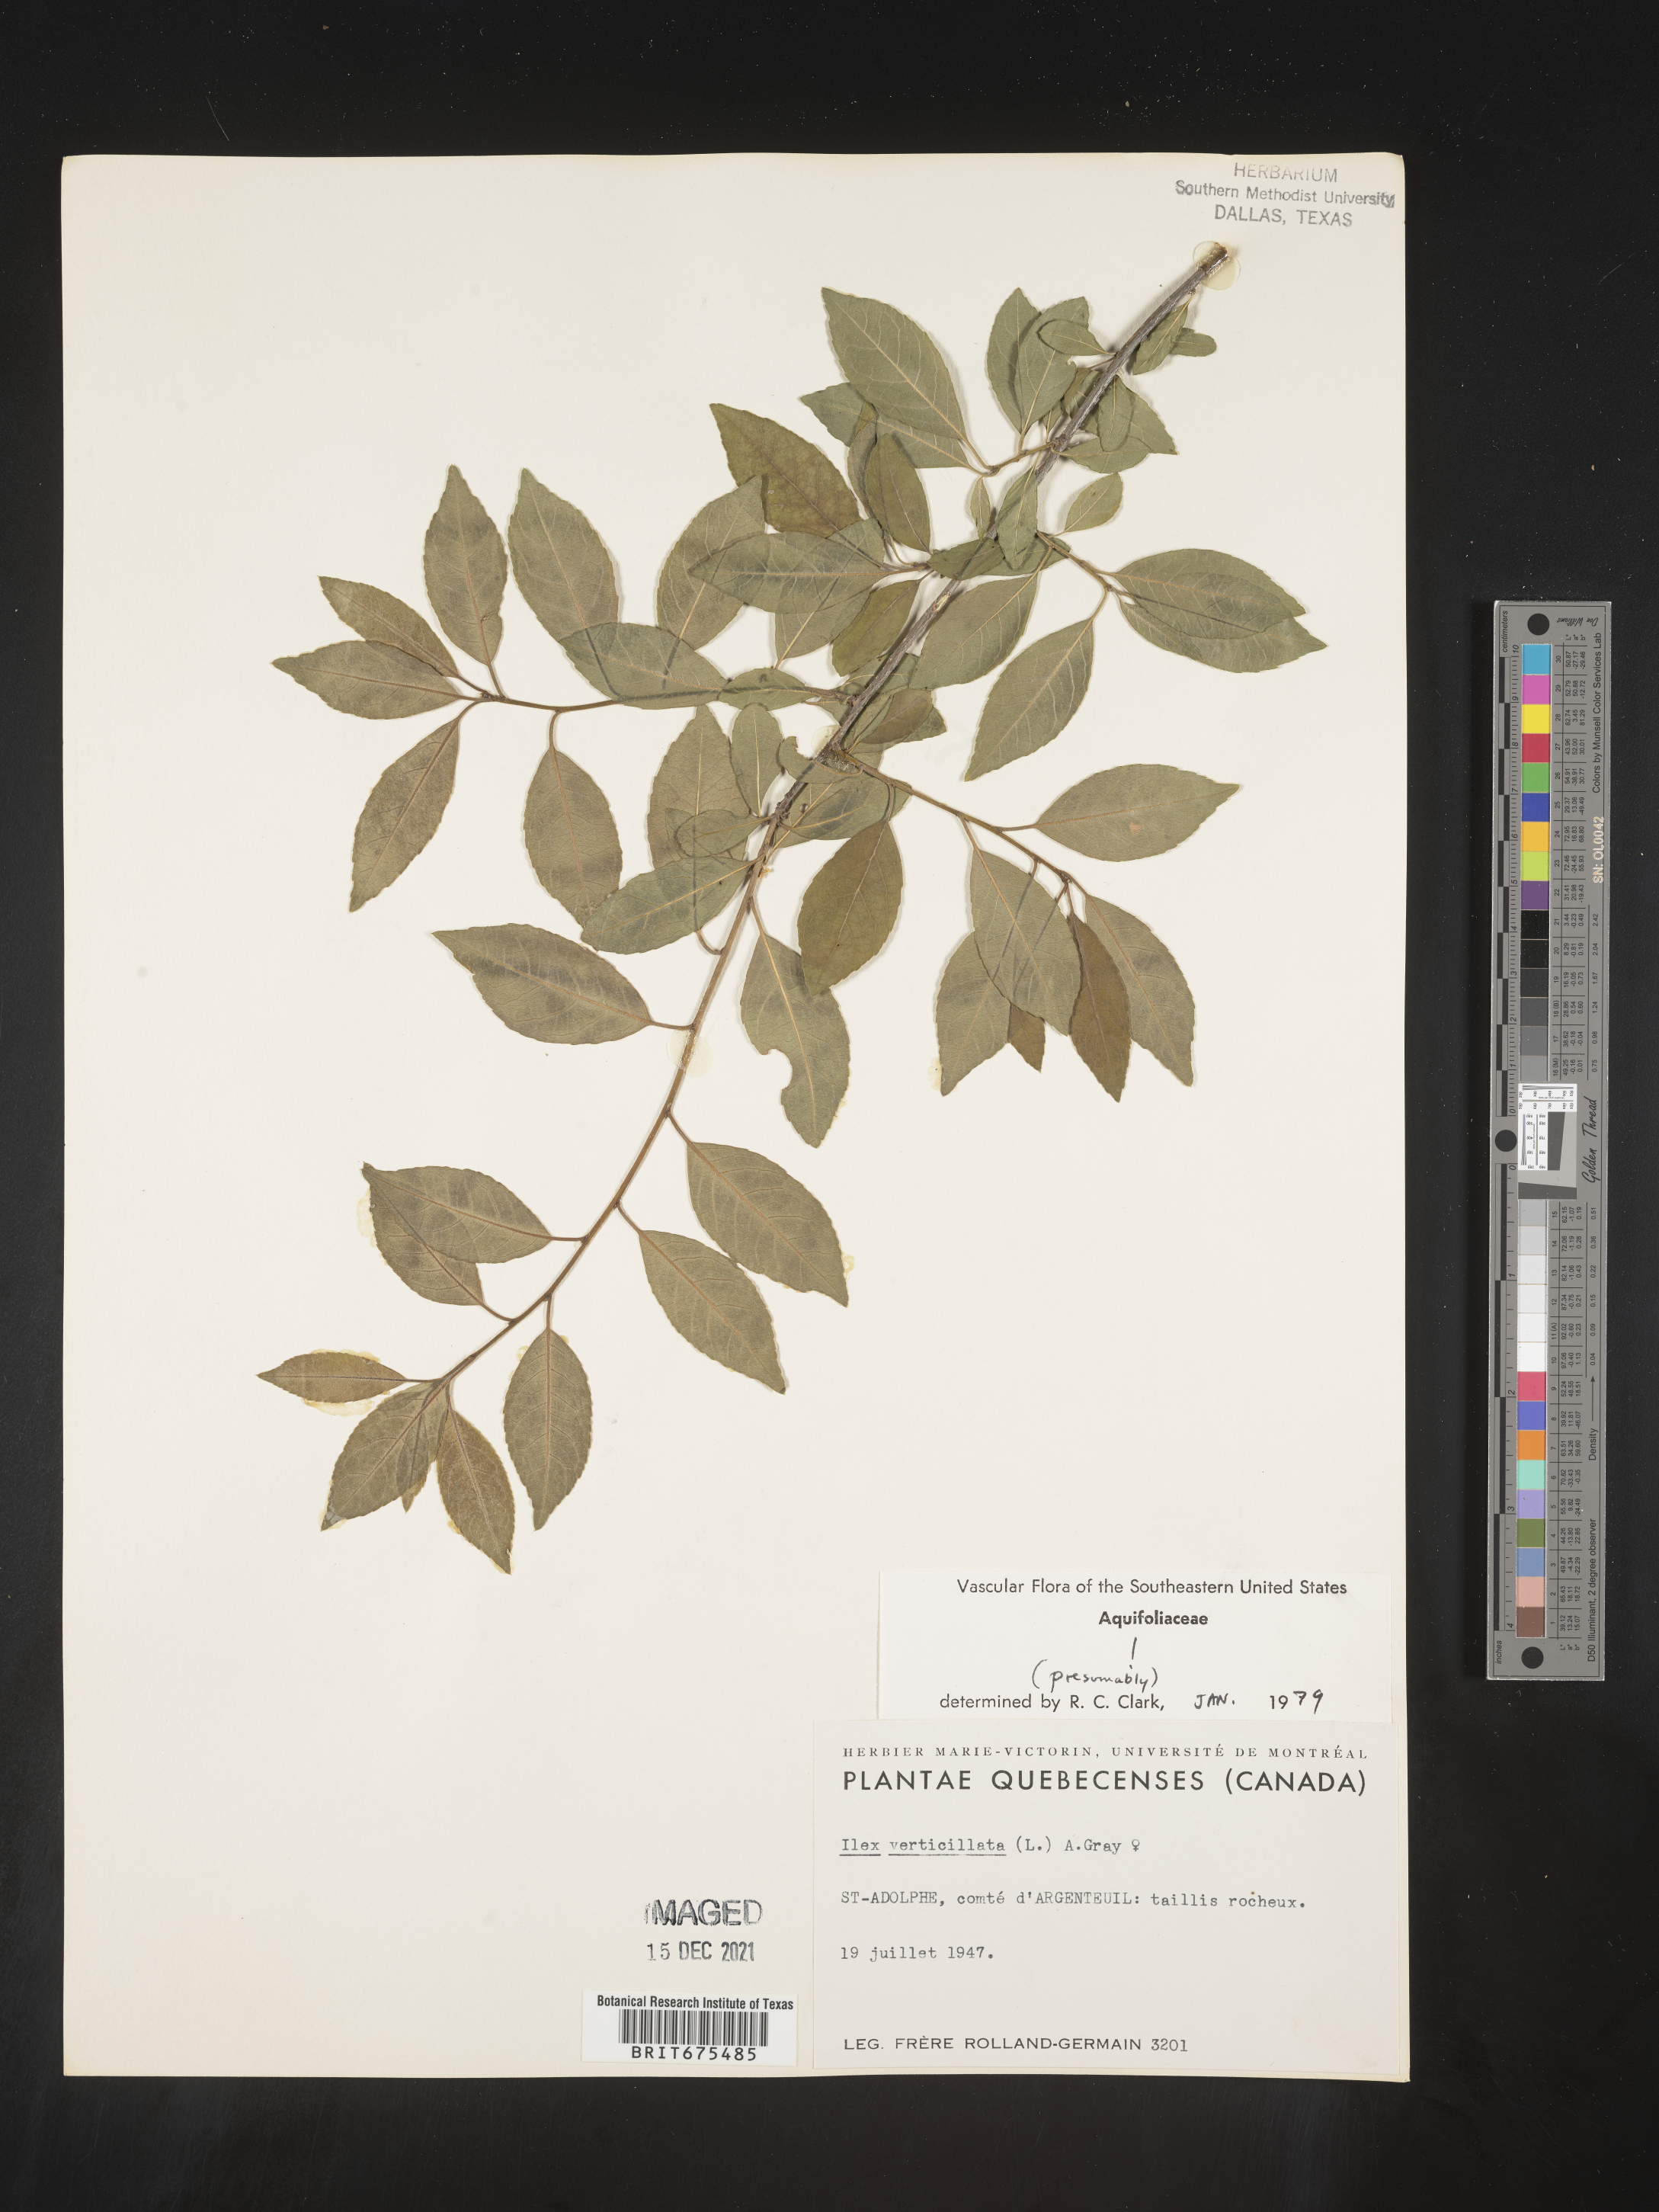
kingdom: Plantae
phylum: Tracheophyta
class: Magnoliopsida
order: Aquifoliales
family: Aquifoliaceae
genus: Ilex
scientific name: Ilex verticillata
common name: Virginia winterberry
